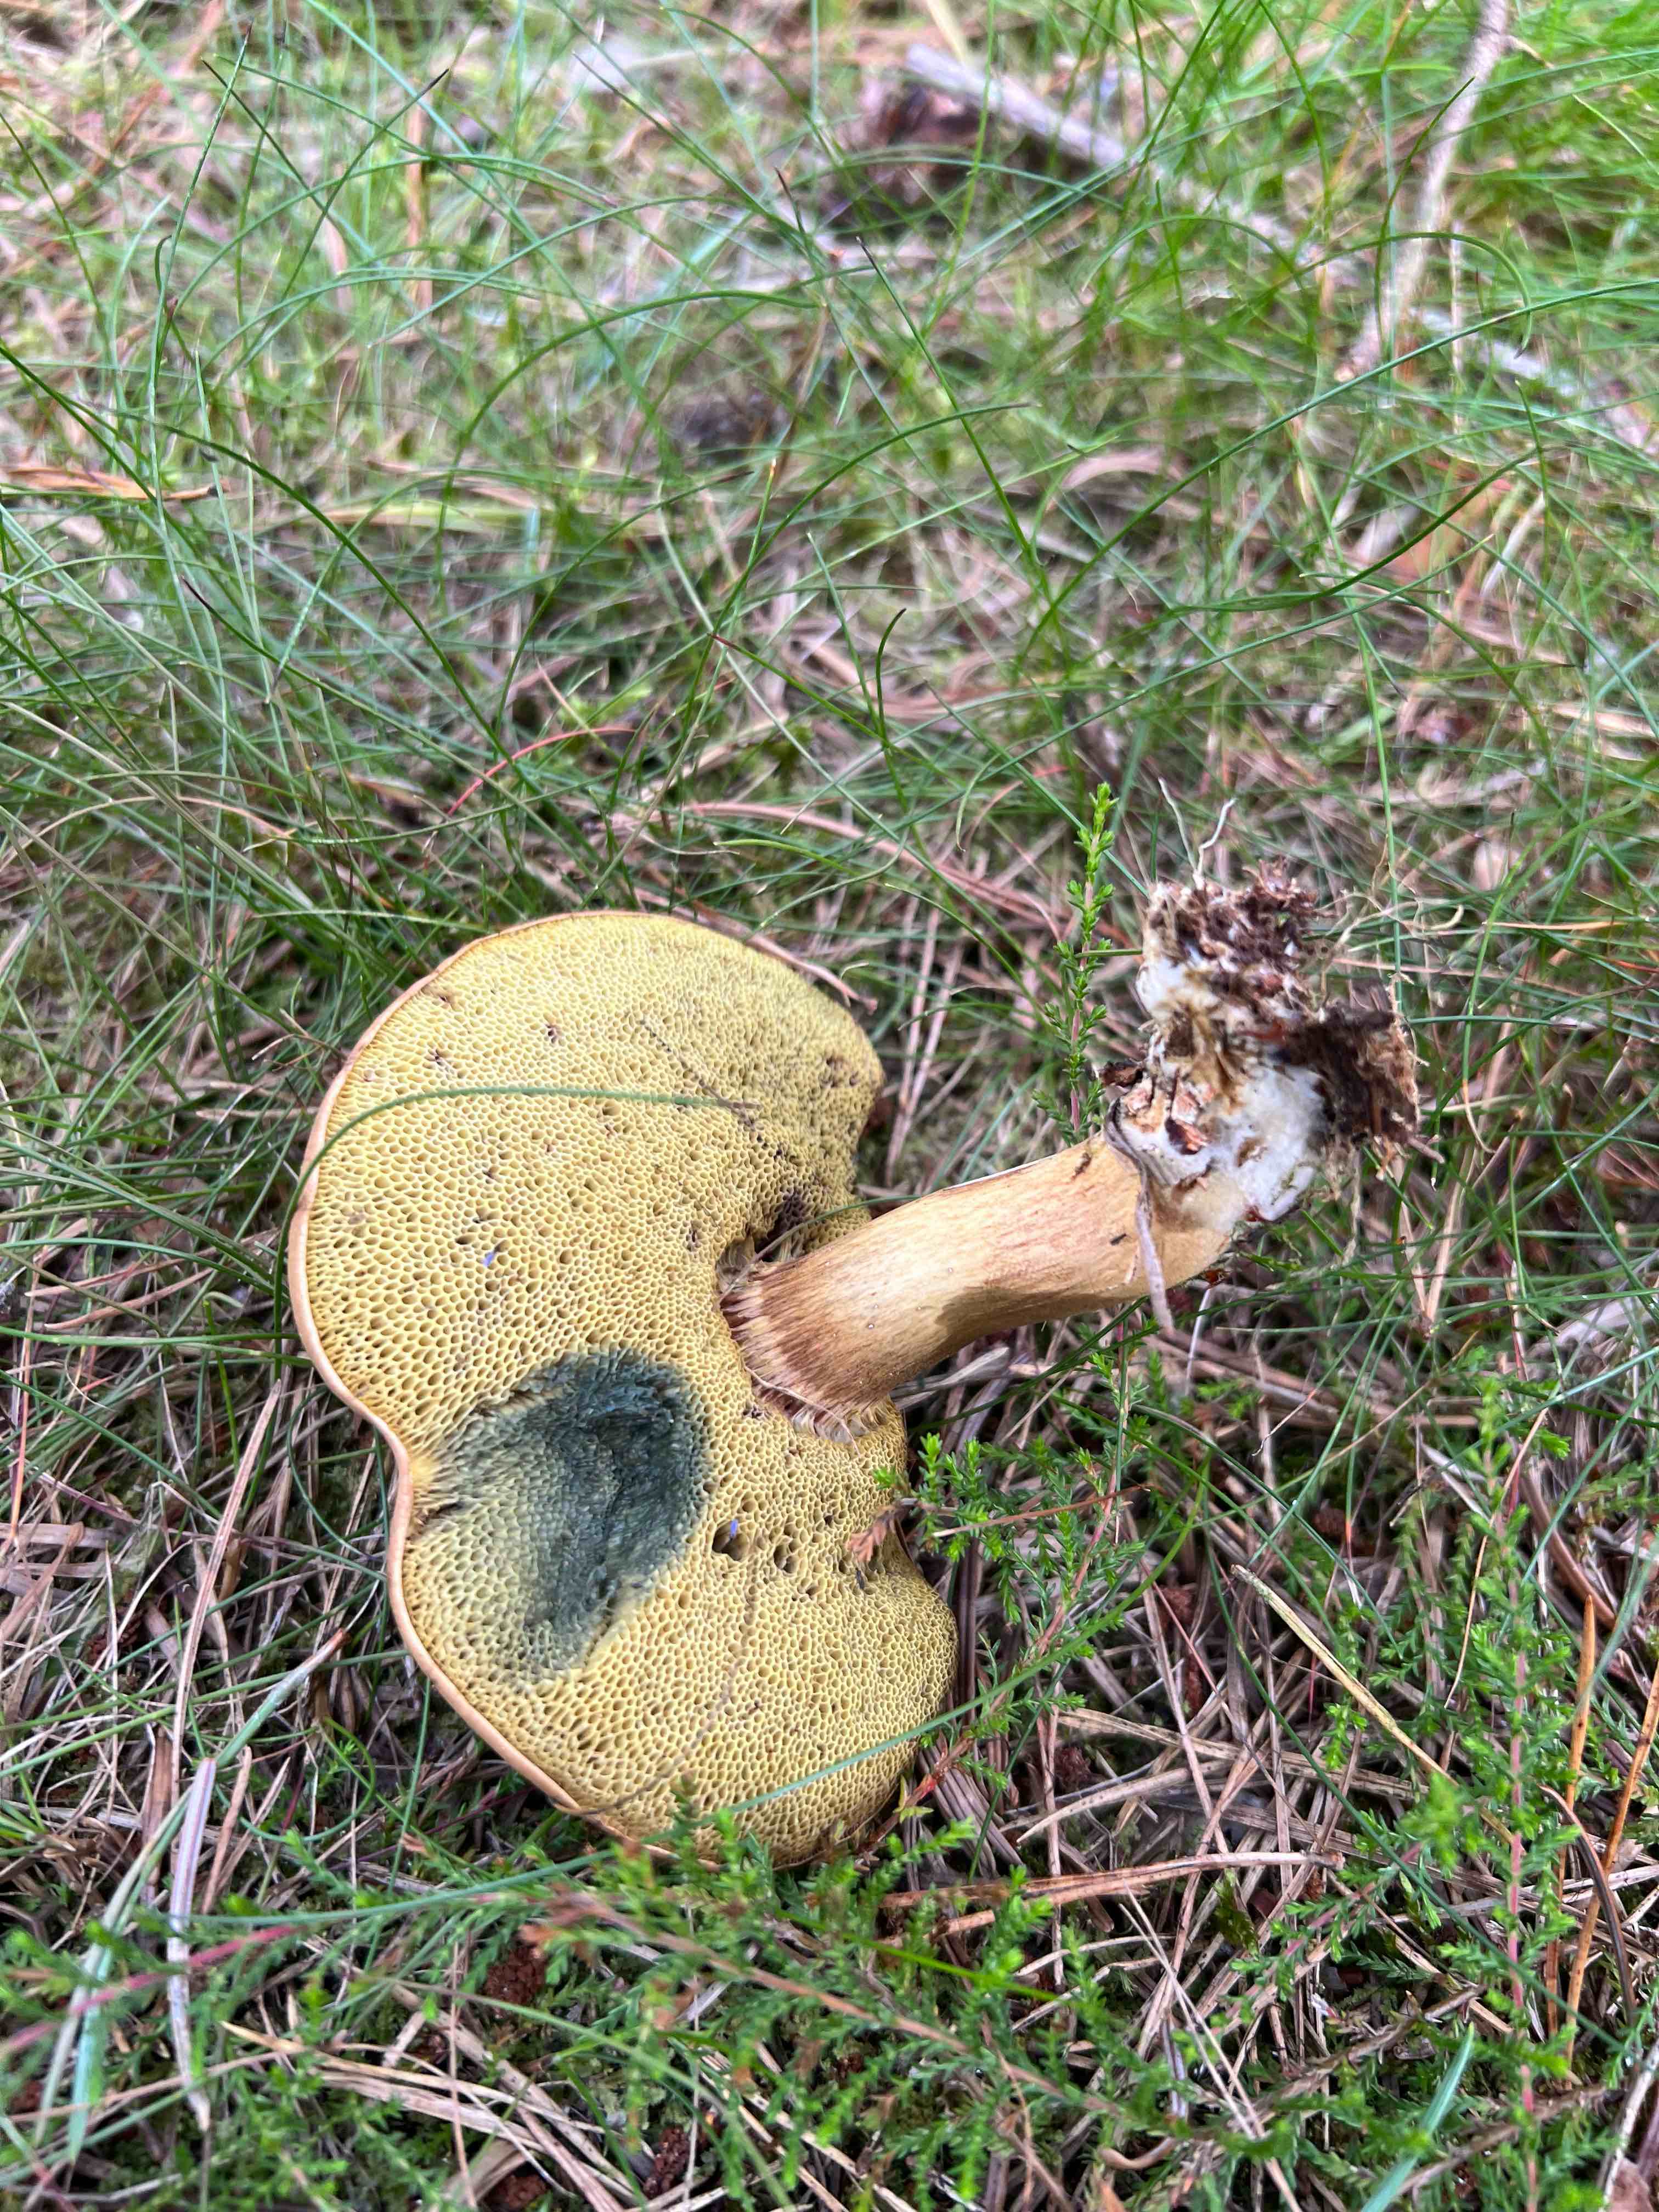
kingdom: Fungi
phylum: Basidiomycota
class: Agaricomycetes
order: Boletales
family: Boletaceae
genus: Imleria
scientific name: Imleria badia
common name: brunstokket rørhat
